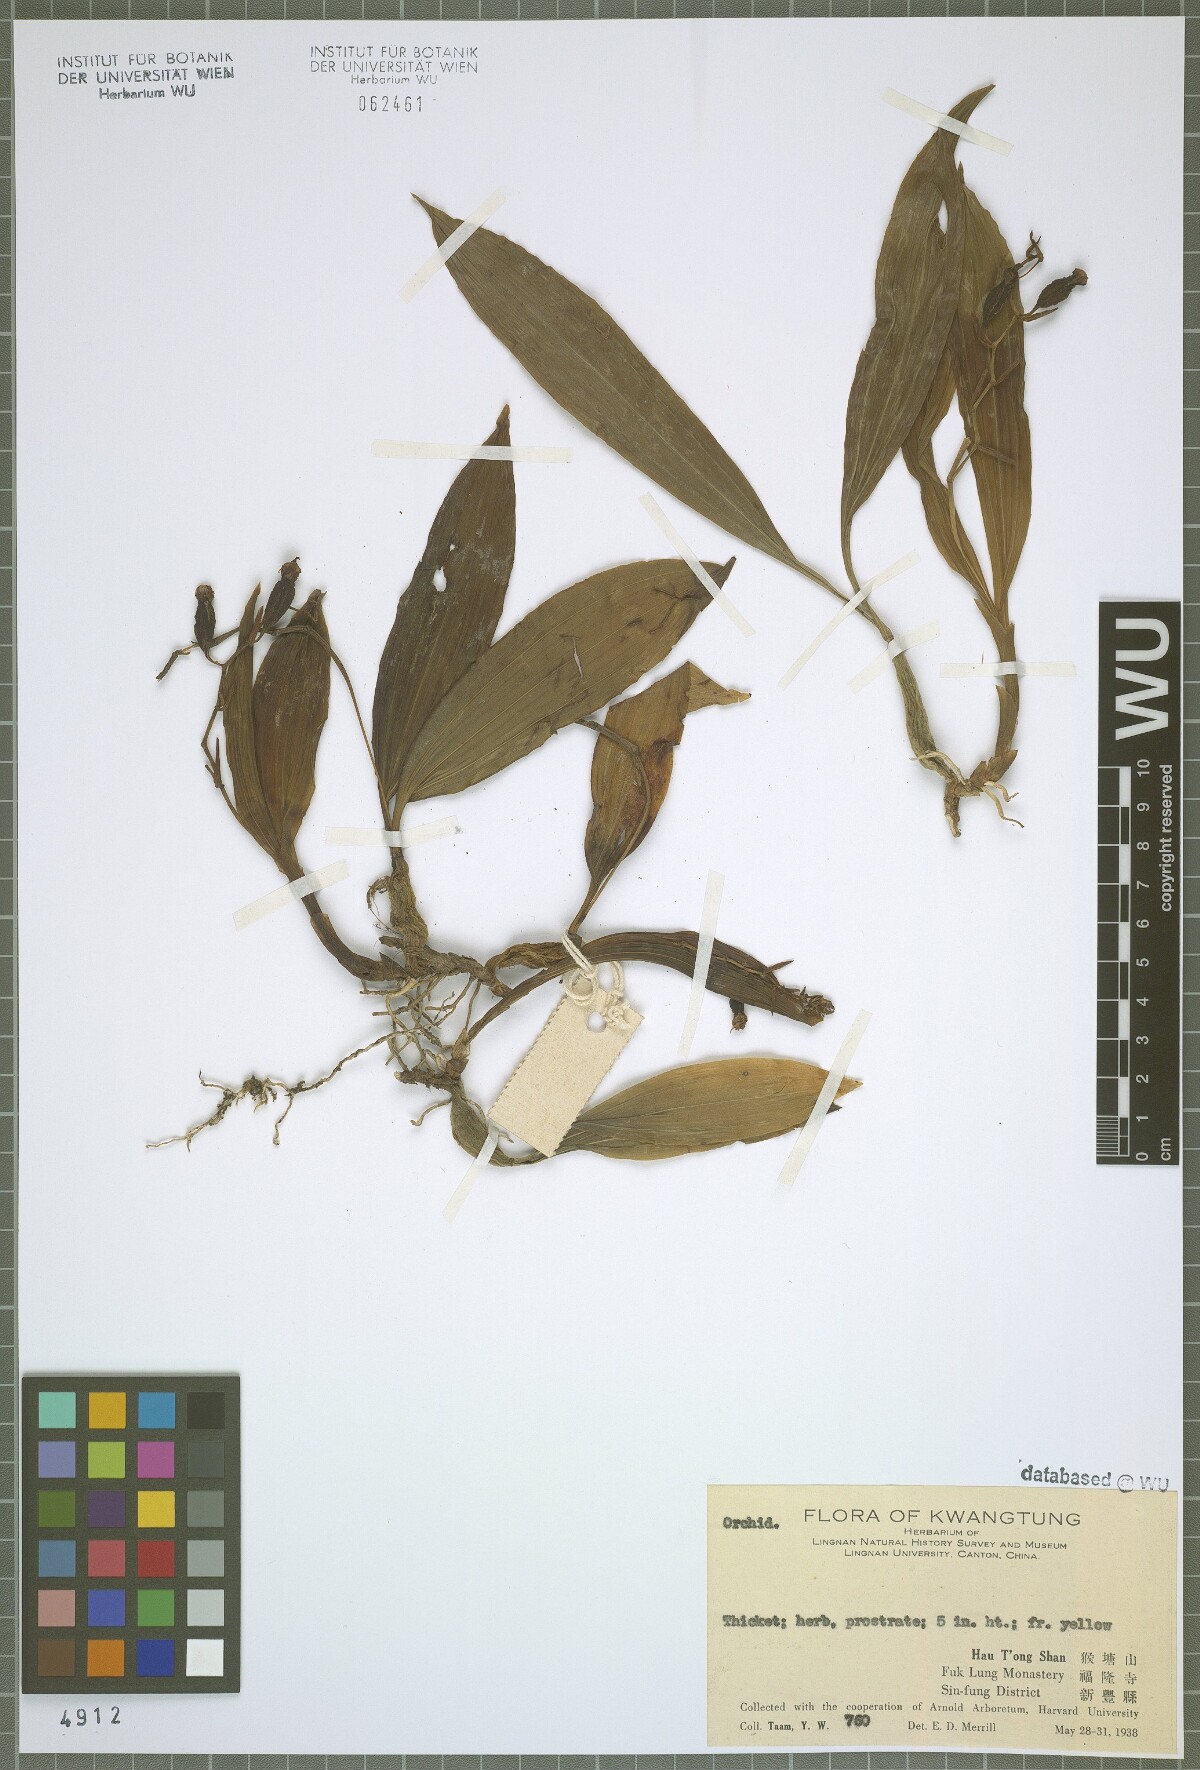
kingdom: Plantae
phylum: Tracheophyta
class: Liliopsida
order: Asparagales
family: Orchidaceae
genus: Coelogyne
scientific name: Coelogyne chinensis
